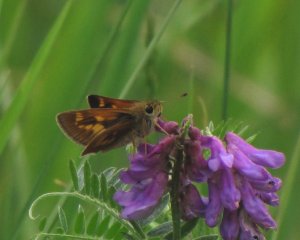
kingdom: Animalia
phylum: Arthropoda
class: Insecta
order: Lepidoptera
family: Hesperiidae
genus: Polites
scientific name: Polites
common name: Long Dash Skipper
